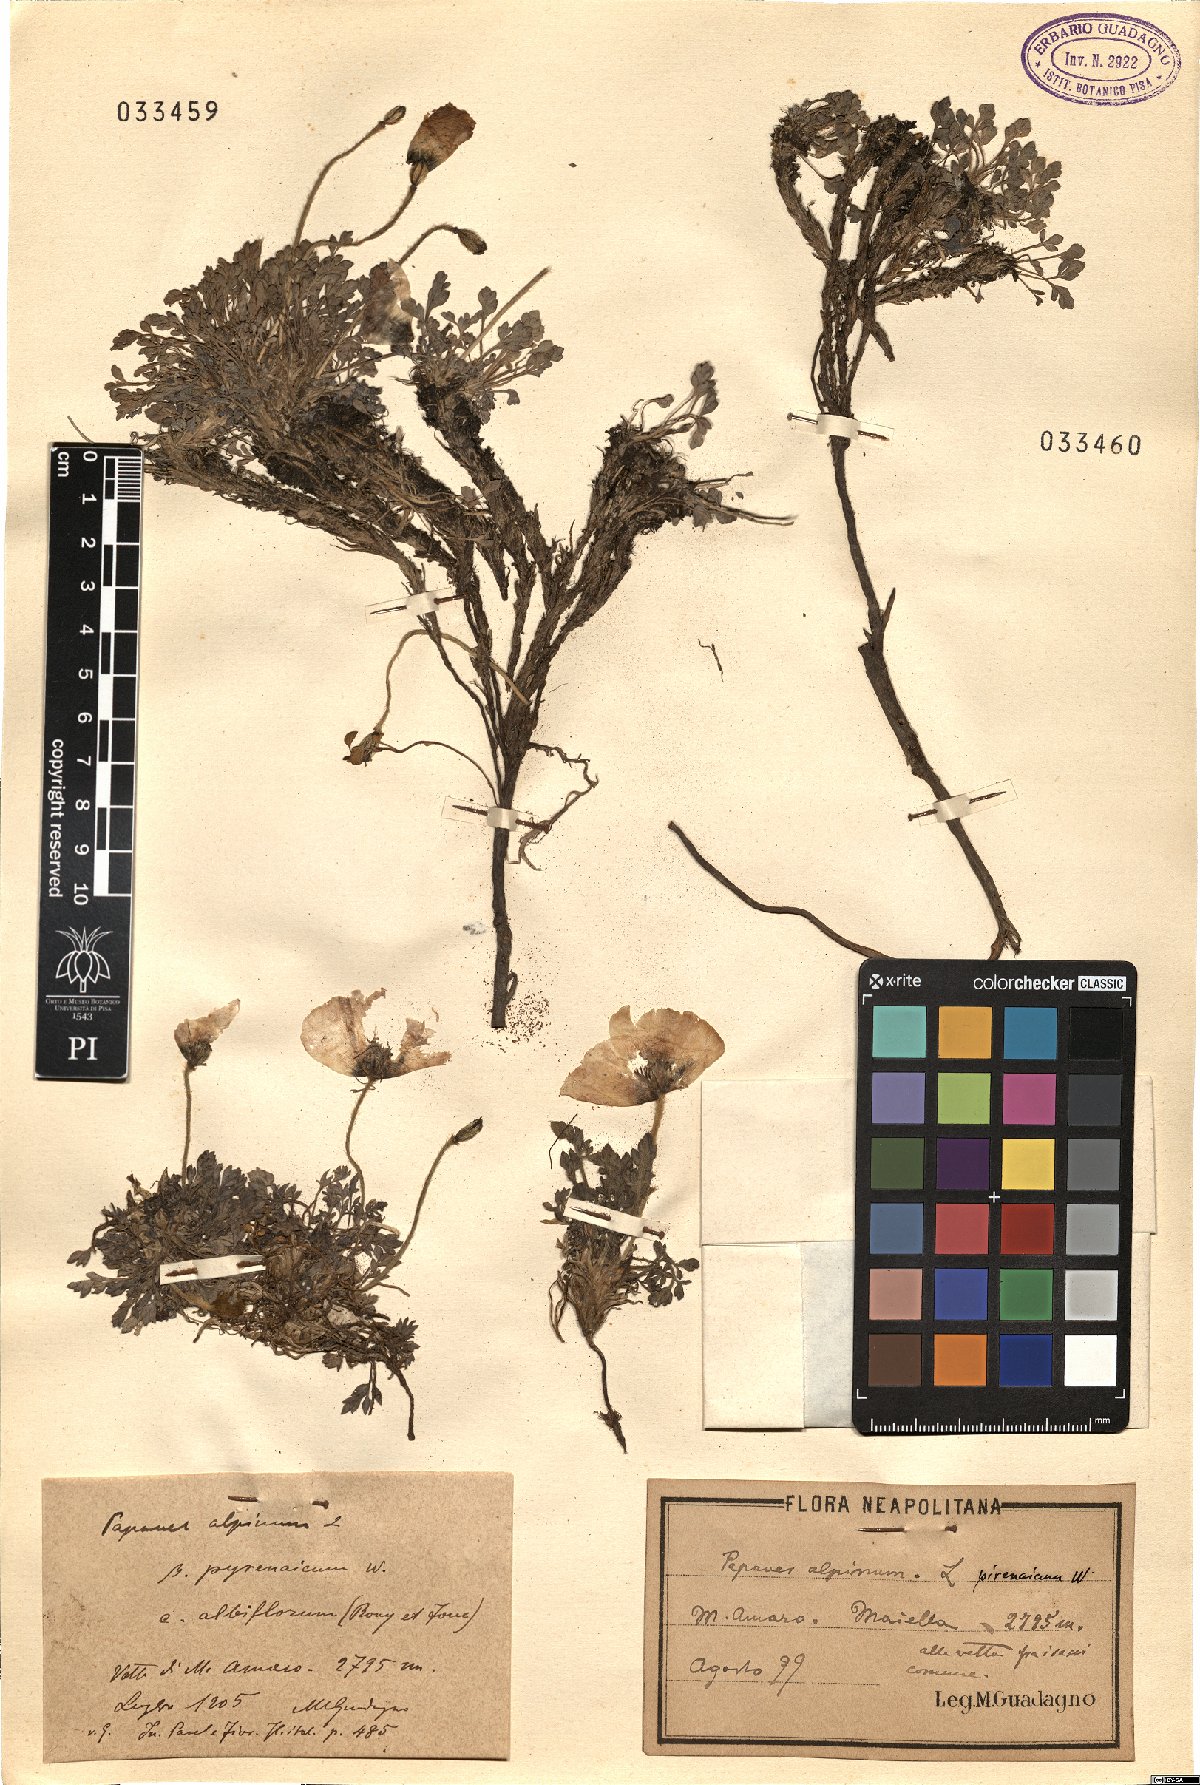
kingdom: Plantae
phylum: Tracheophyta
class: Magnoliopsida
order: Ranunculales
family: Papaveraceae
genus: Papaver
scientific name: Papaver alpinum
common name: Austrian poppy
